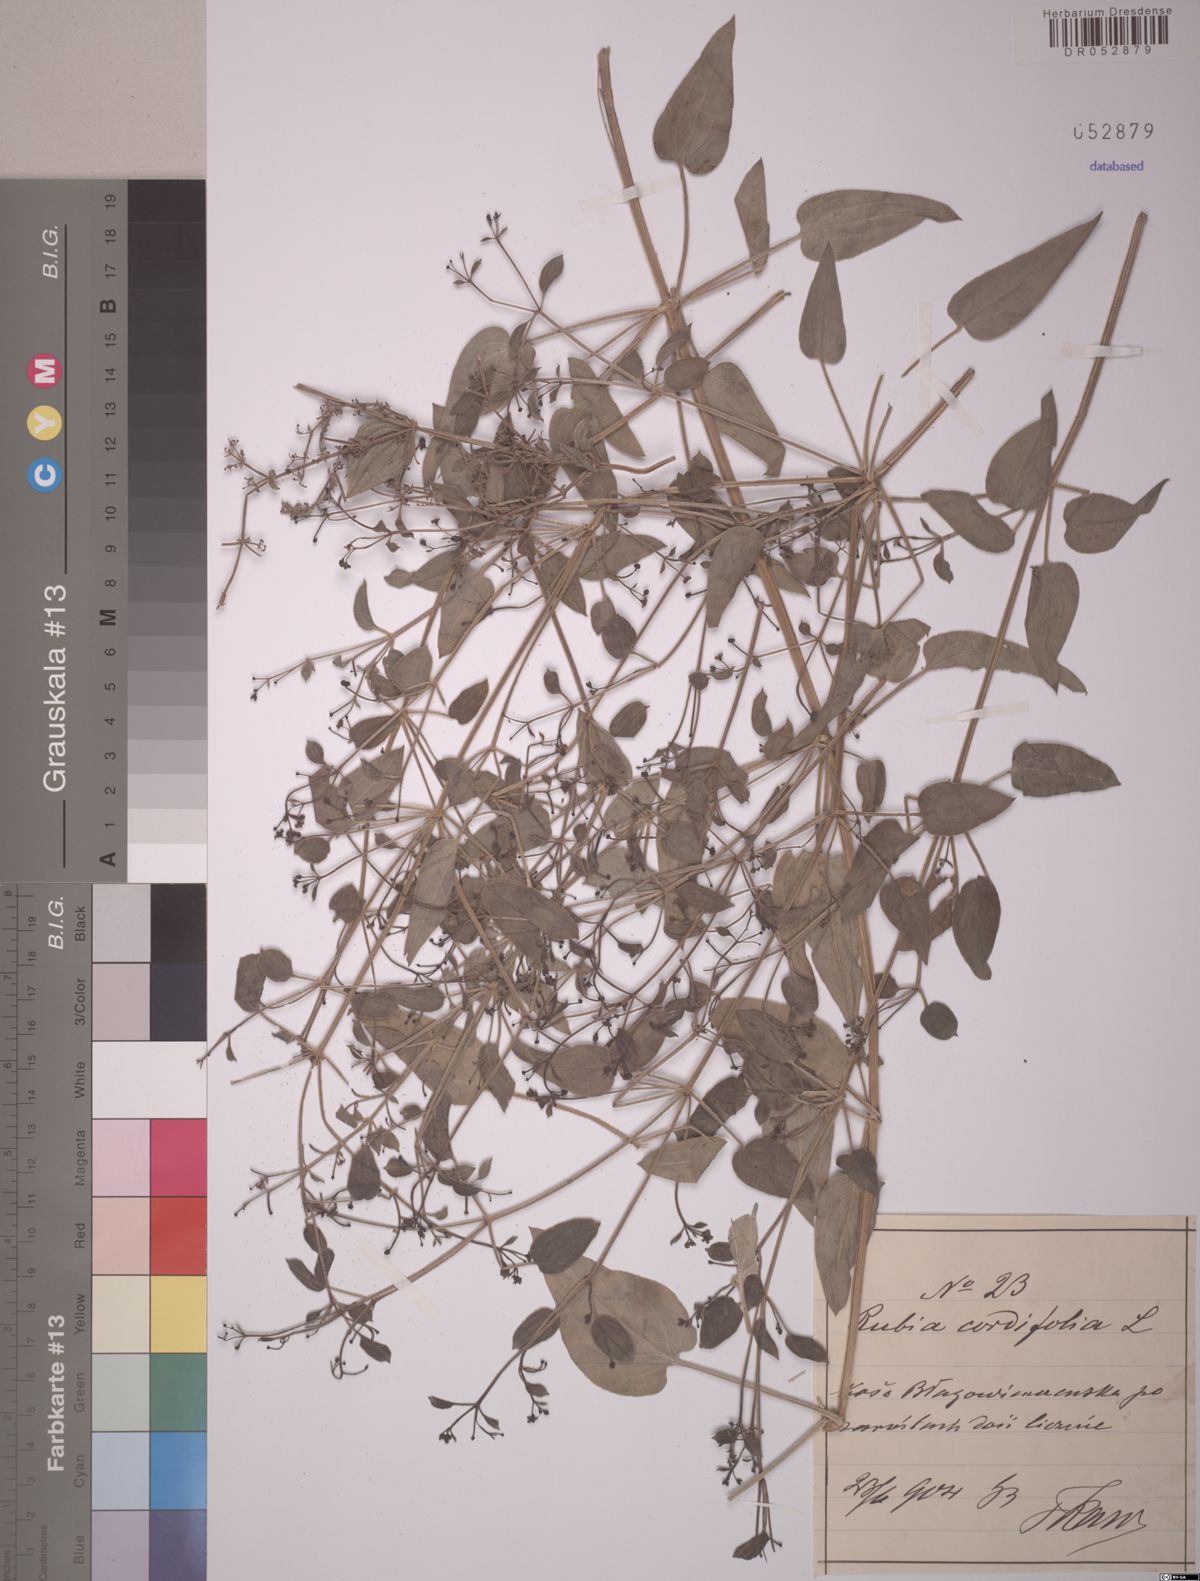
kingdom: Plantae
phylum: Tracheophyta
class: Magnoliopsida
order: Gentianales
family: Rubiaceae
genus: Rubia
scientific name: Rubia cordifolia
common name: Indian madder
